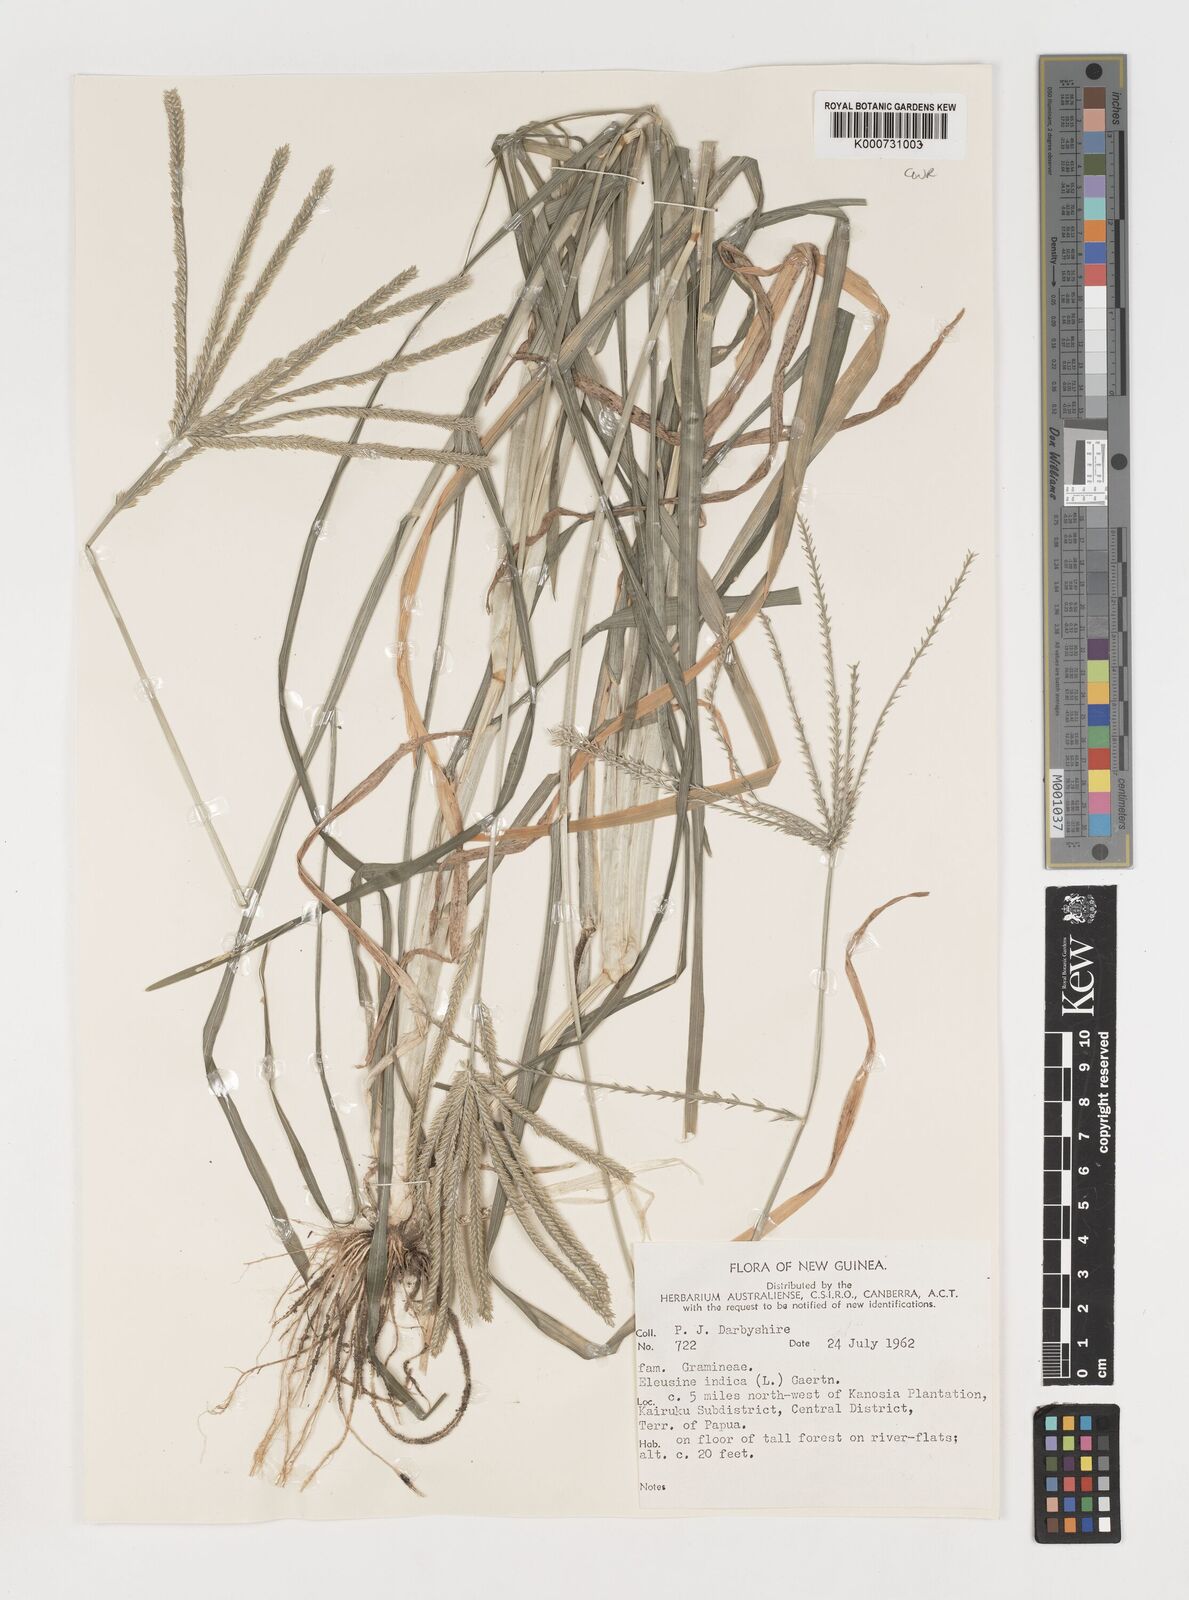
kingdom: Plantae
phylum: Tracheophyta
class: Liliopsida
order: Poales
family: Poaceae
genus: Eleusine
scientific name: Eleusine indica
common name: Yard-grass
